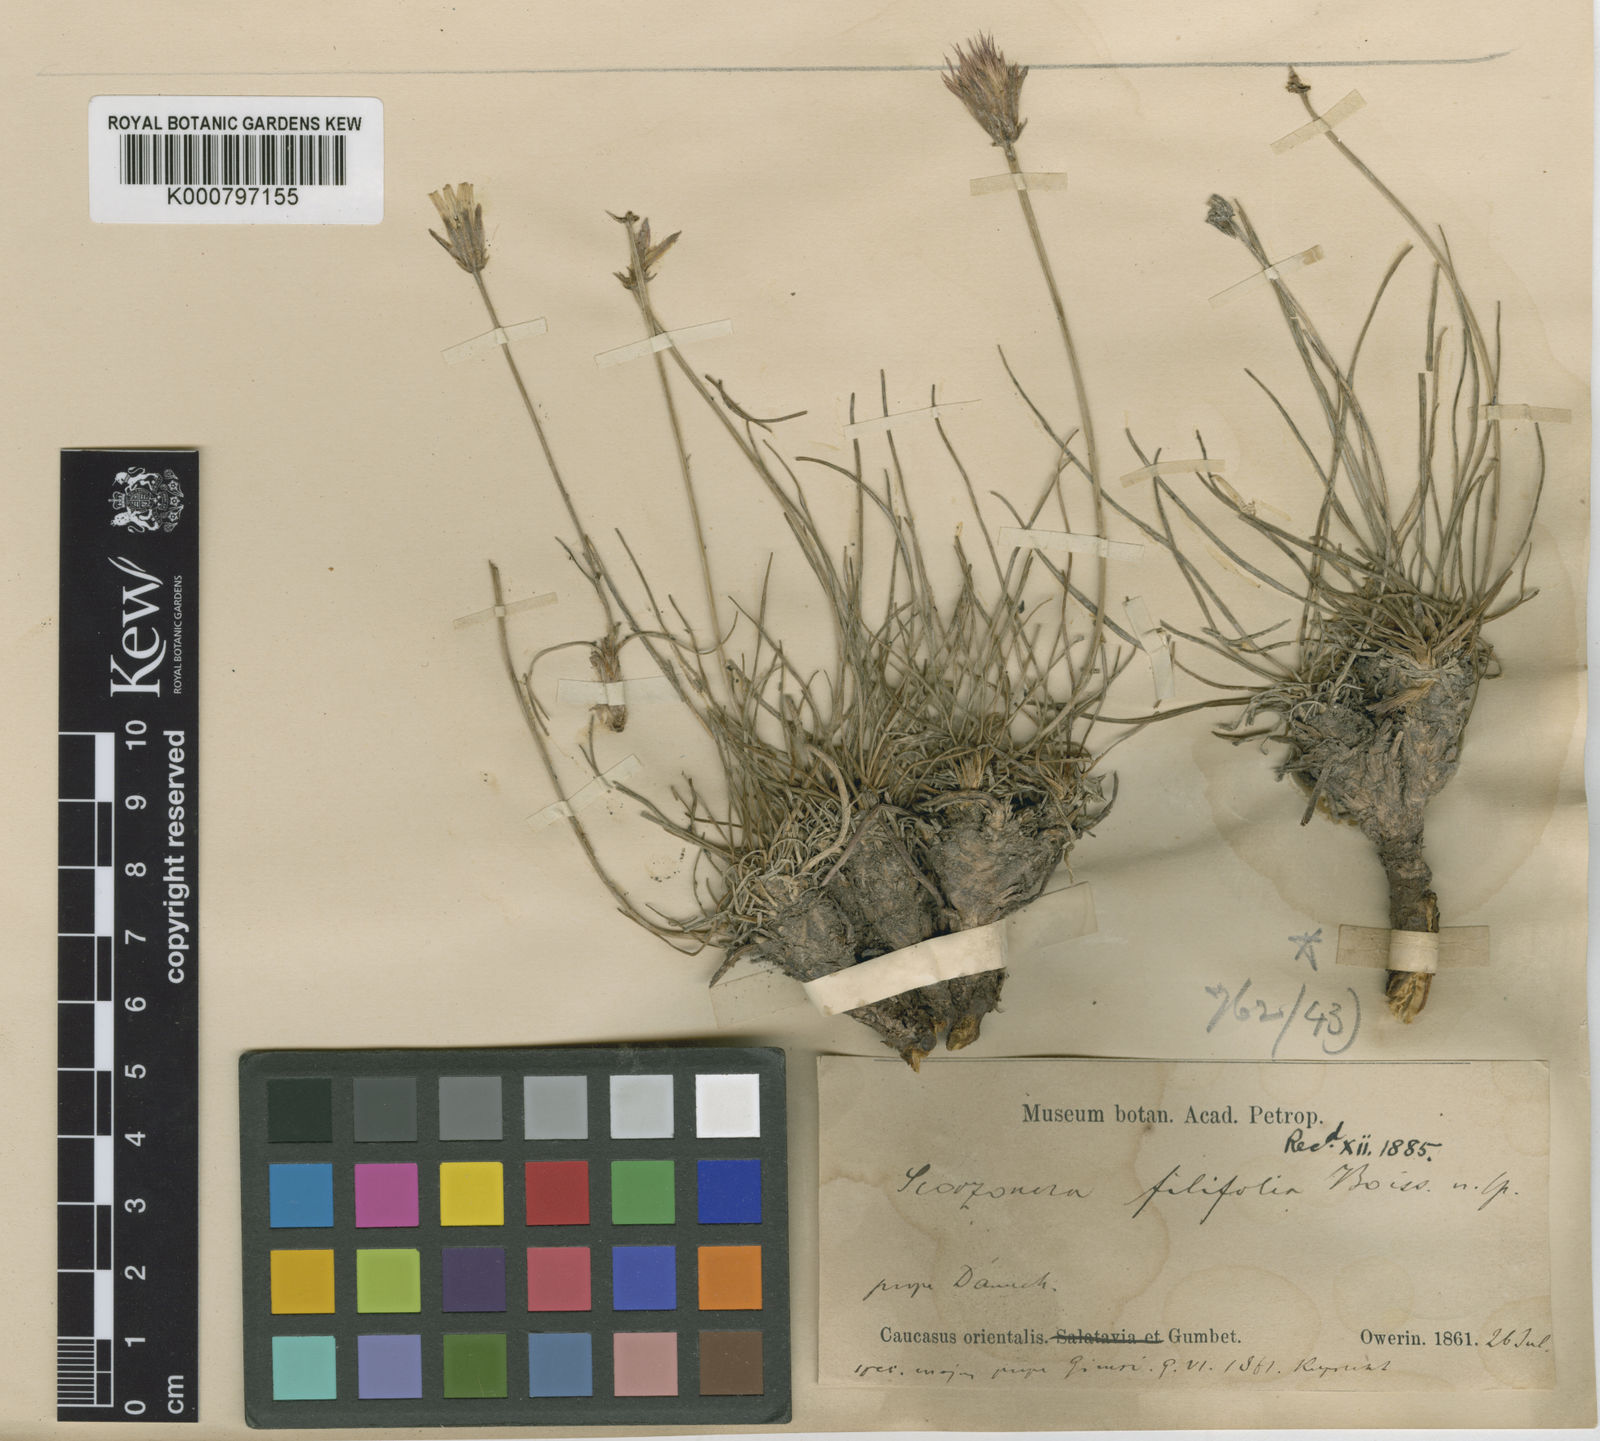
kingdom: Plantae
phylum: Tracheophyta
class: Magnoliopsida
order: Asterales
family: Asteraceae
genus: Gelasia
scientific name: Gelasia filifolia
